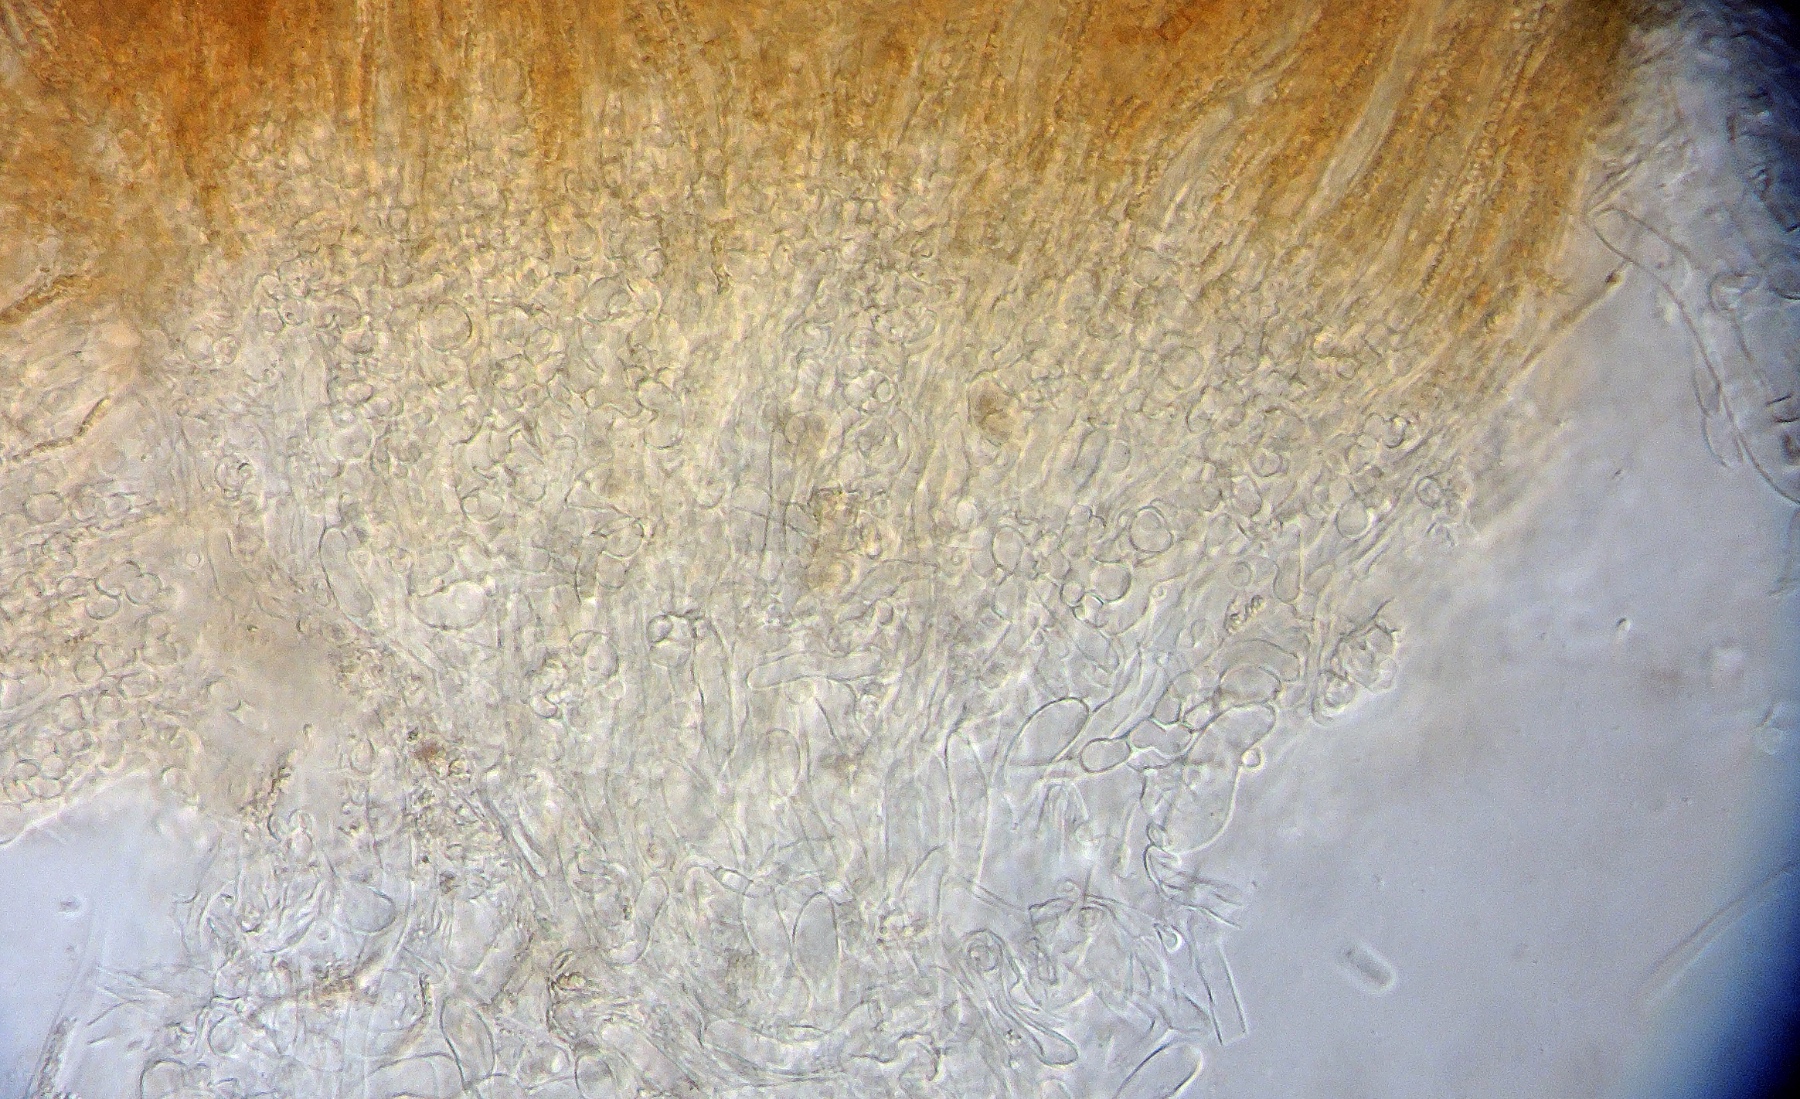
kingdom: Fungi
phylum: Ascomycota
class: Leotiomycetes
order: Helotiales
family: Helotiaceae
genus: Hymenoscyphus
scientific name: Hymenoscyphus epiphyllus
